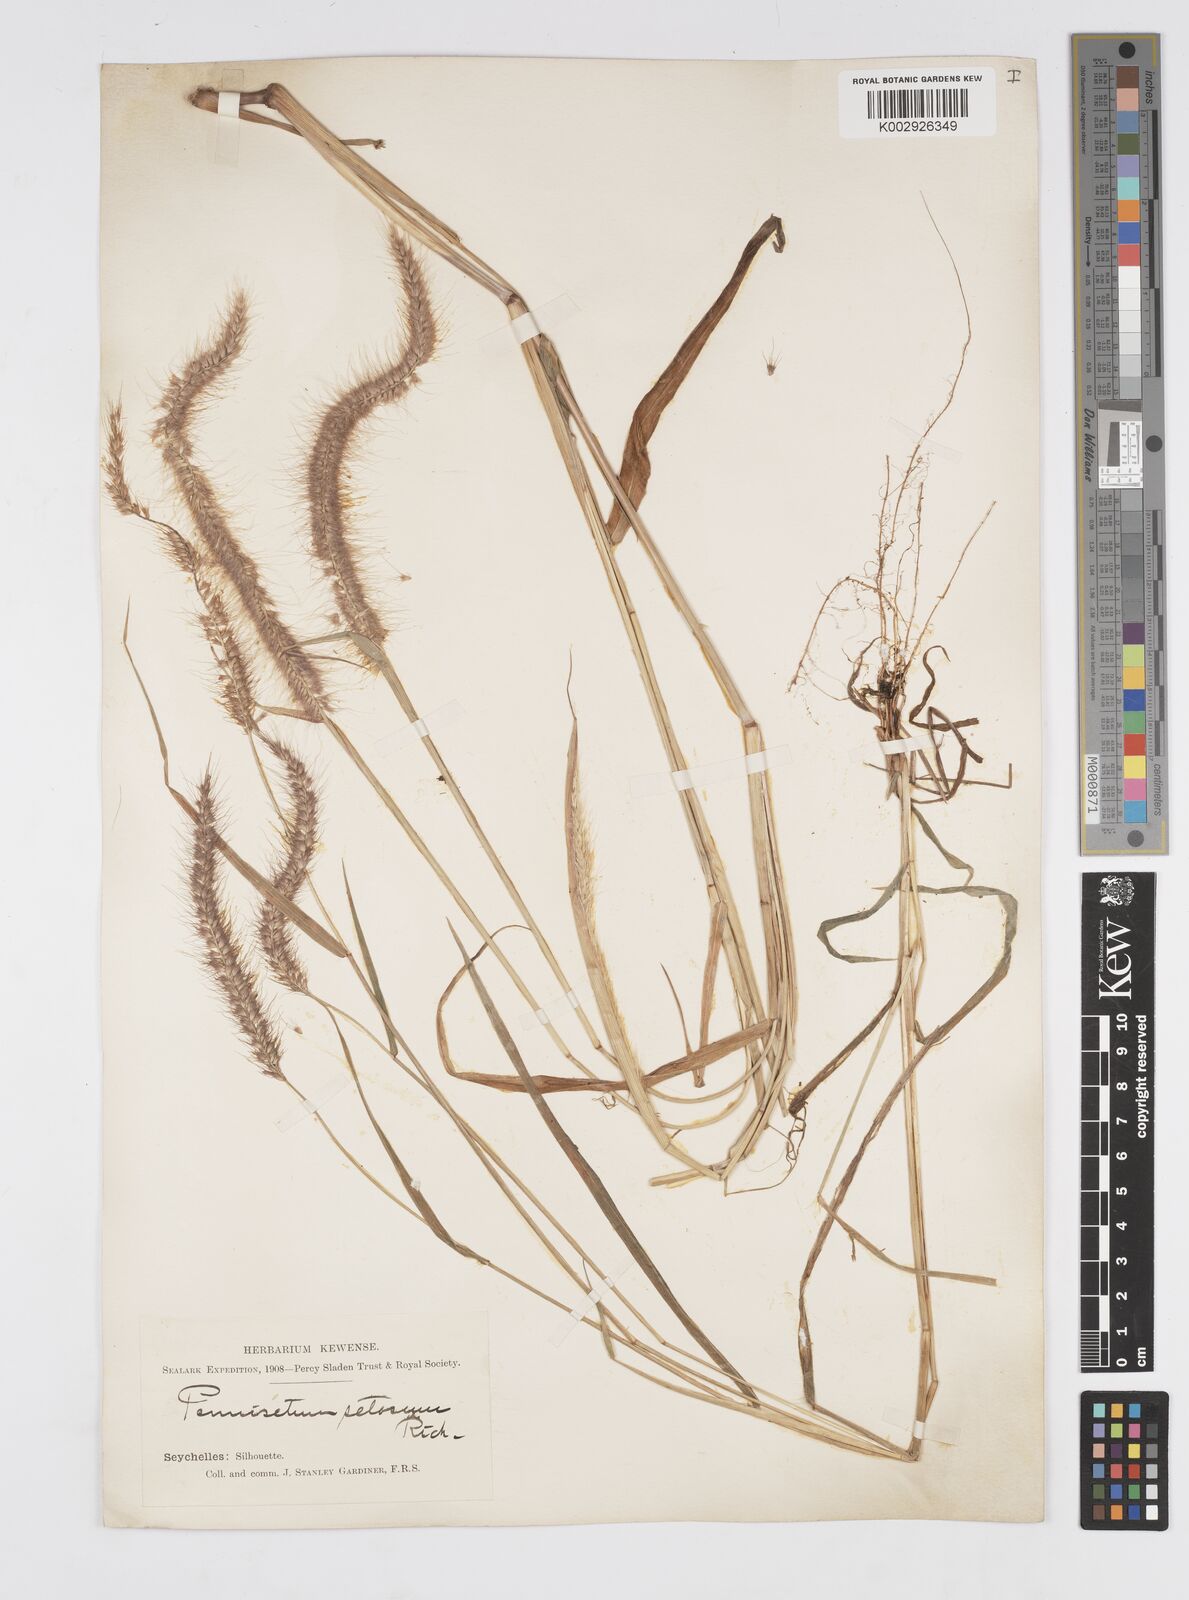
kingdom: Plantae
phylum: Tracheophyta
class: Liliopsida
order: Poales
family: Poaceae
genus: Setaria
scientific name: Setaria parviflora
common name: Knotroot bristle-grass
